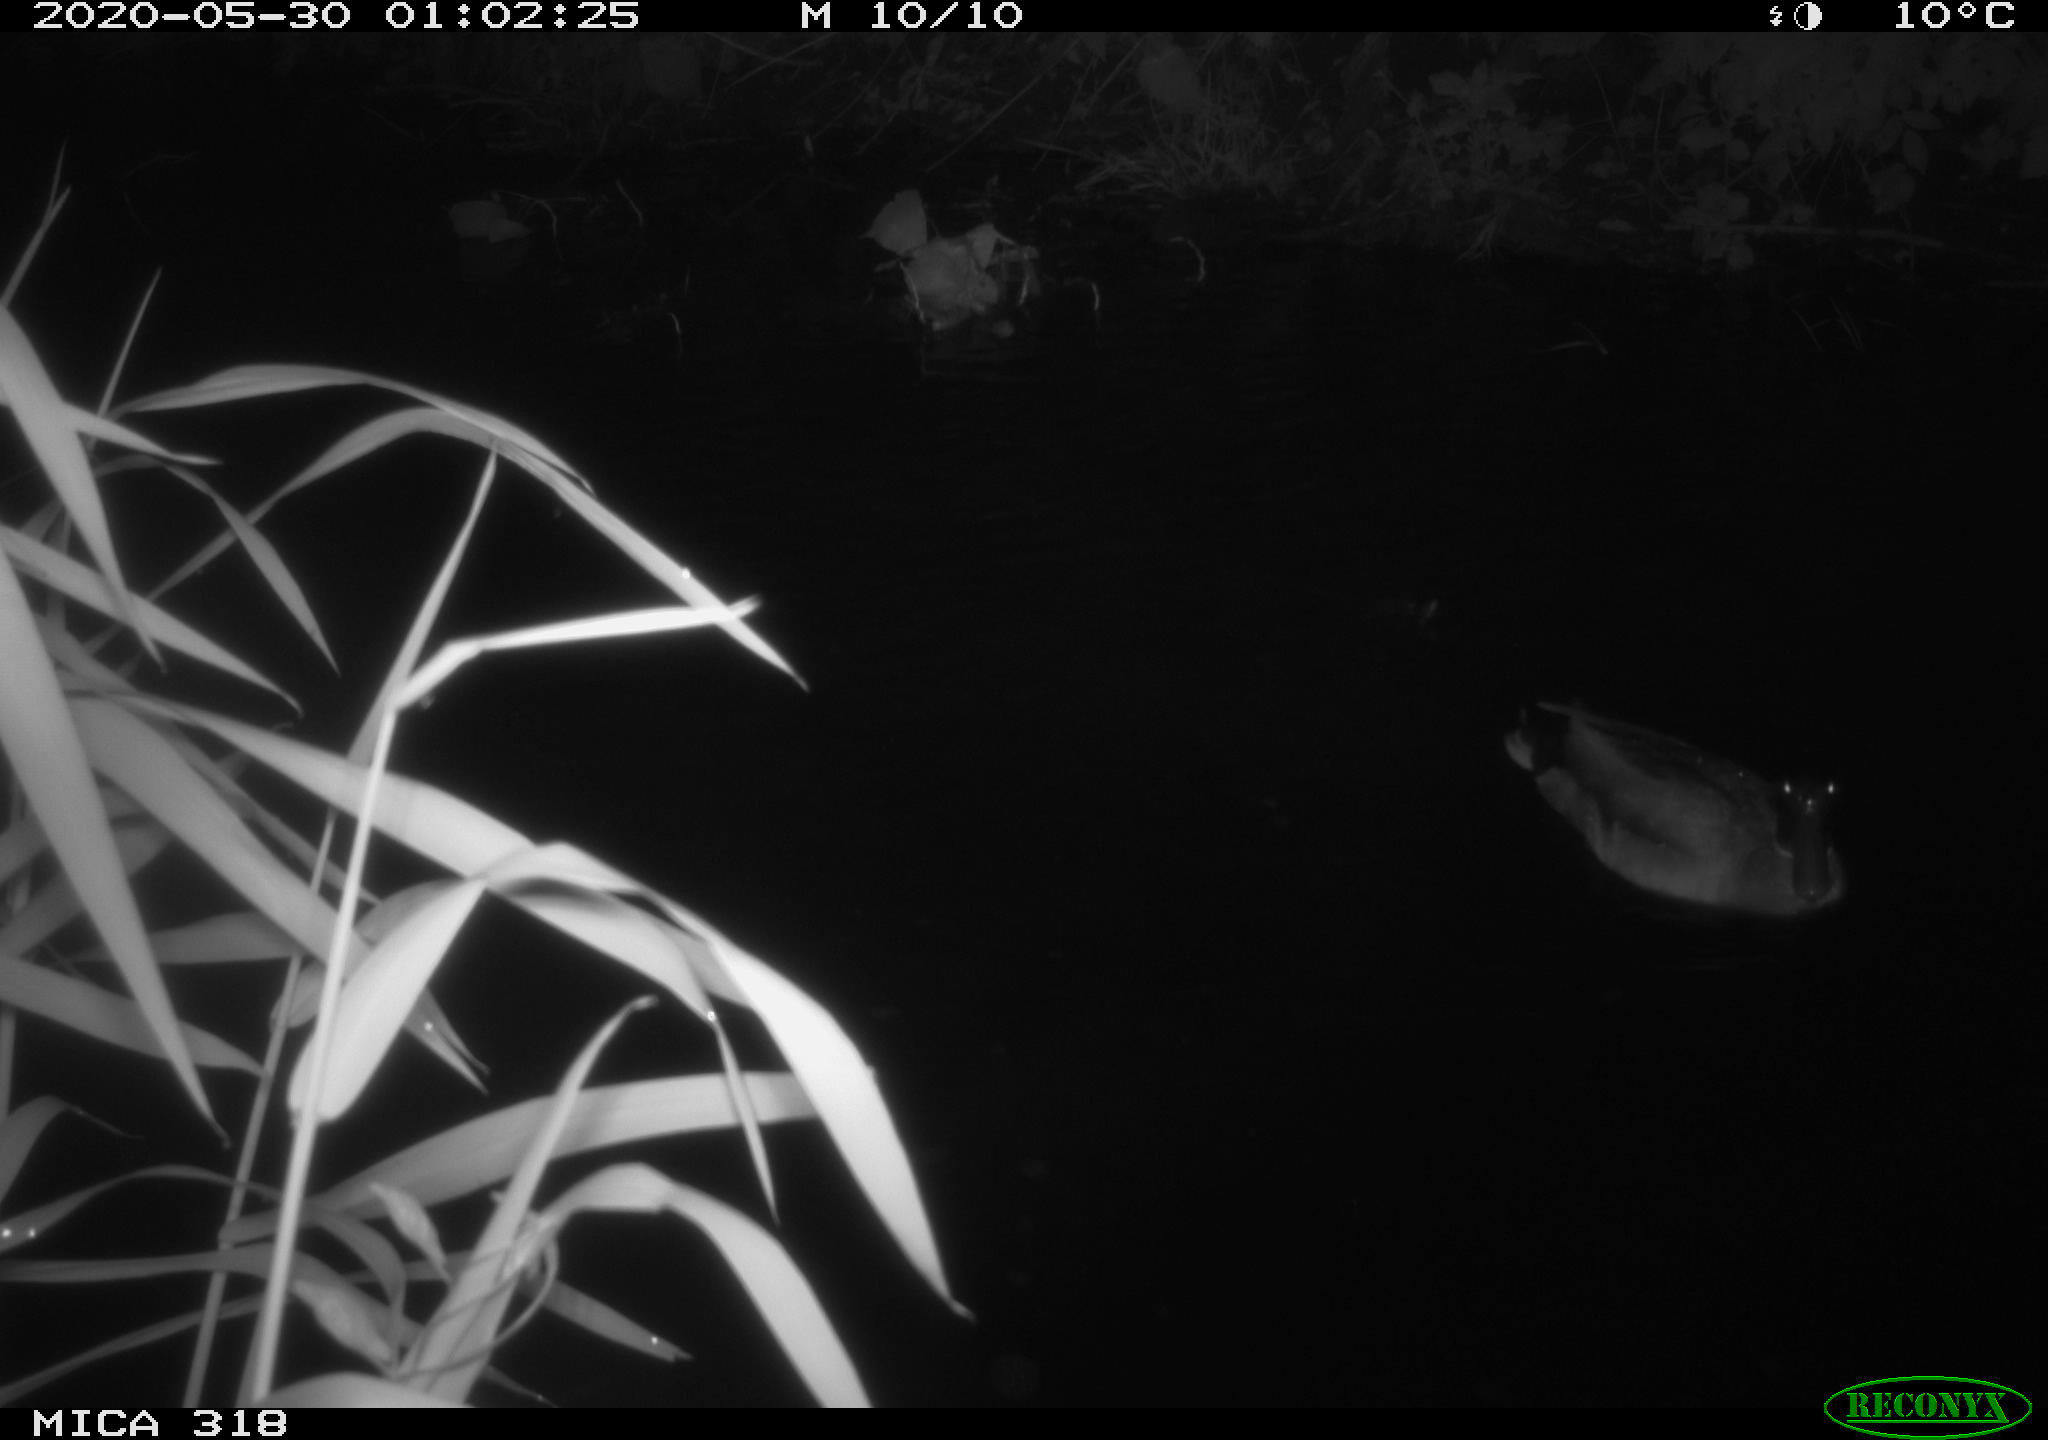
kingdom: Animalia
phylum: Chordata
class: Aves
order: Anseriformes
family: Anatidae
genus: Anas
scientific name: Anas platyrhynchos
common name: Mallard
